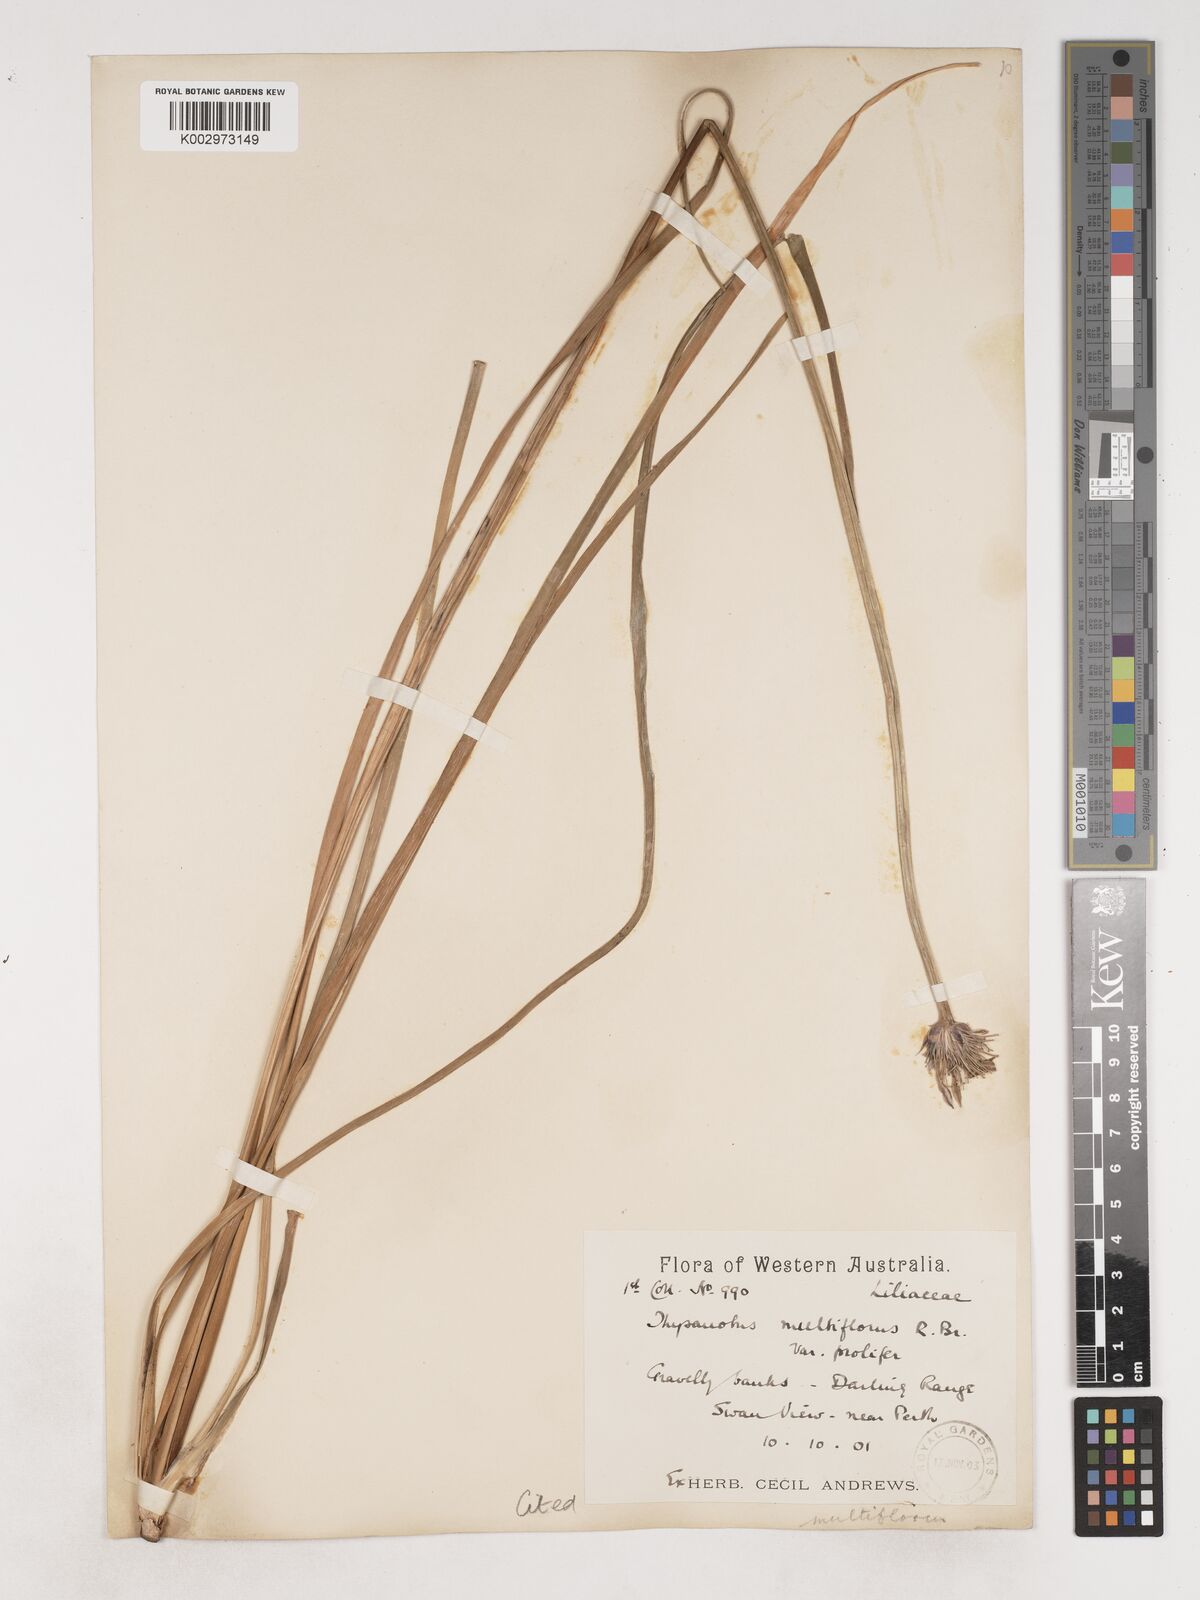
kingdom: Plantae
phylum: Tracheophyta
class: Liliopsida
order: Asparagales
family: Asparagaceae
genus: Thysanotus
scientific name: Thysanotus multiflorus
